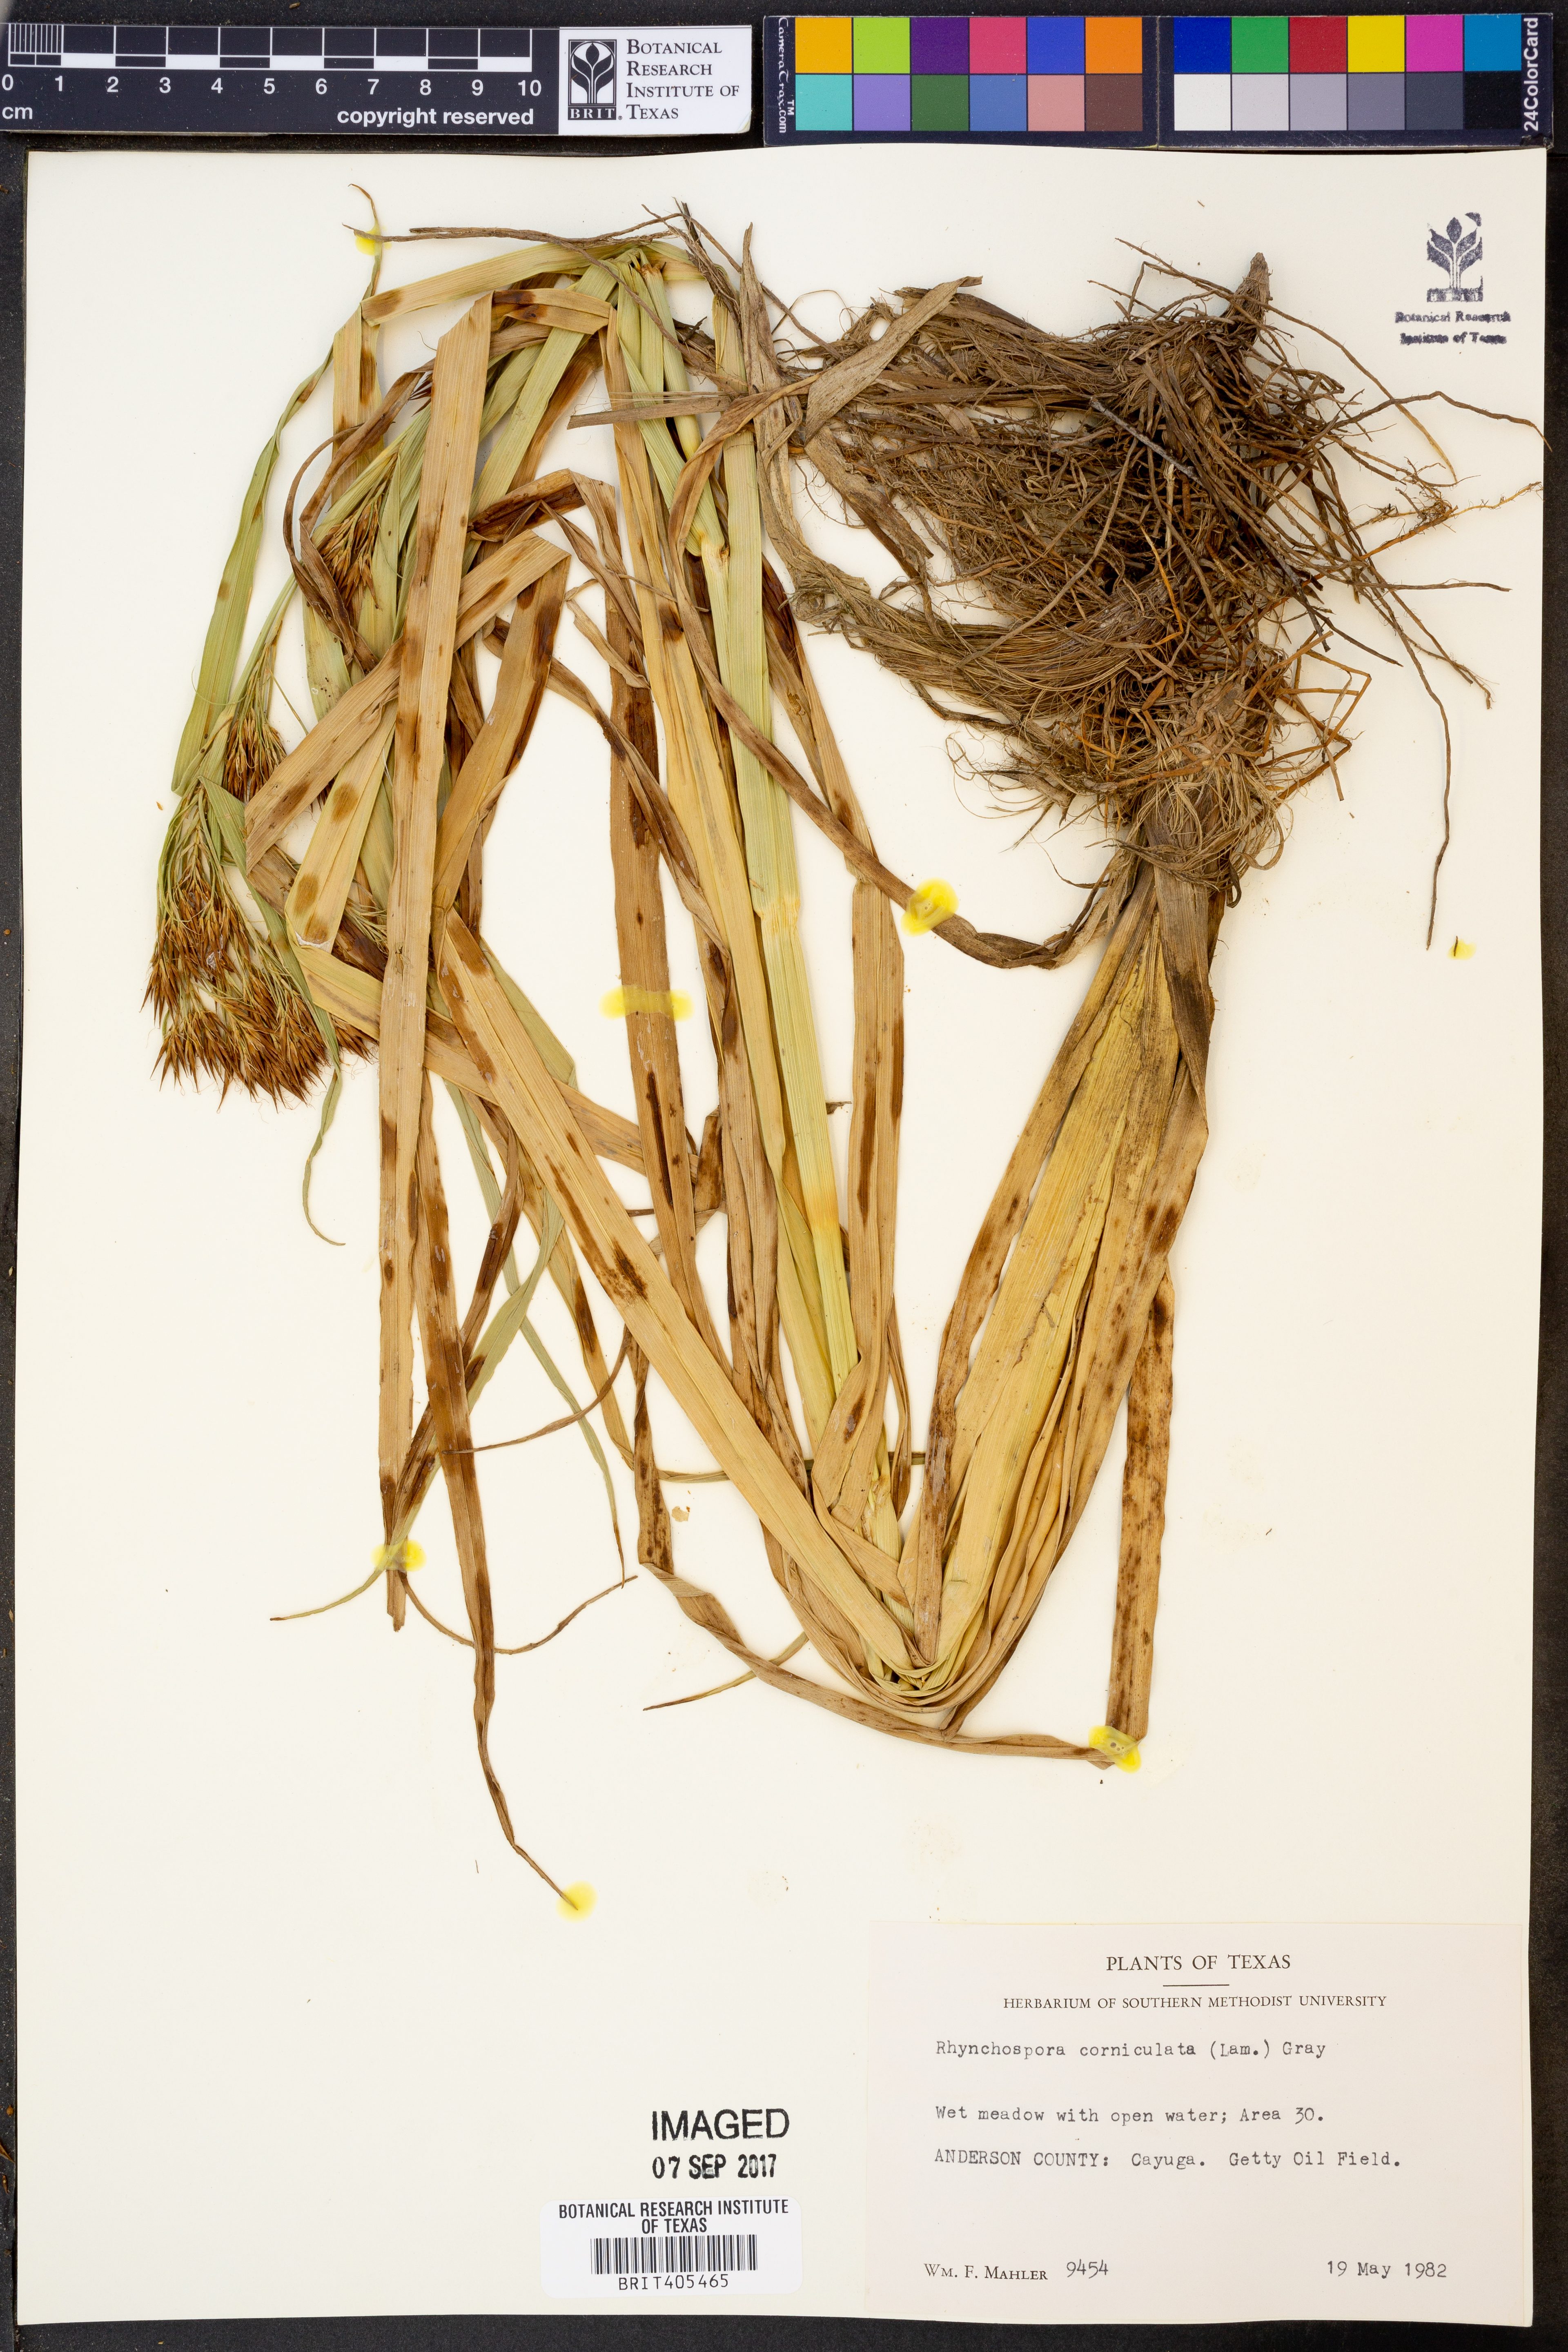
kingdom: Plantae
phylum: Tracheophyta
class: Liliopsida
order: Poales
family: Cyperaceae
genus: Rhynchospora
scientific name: Rhynchospora corniculata
